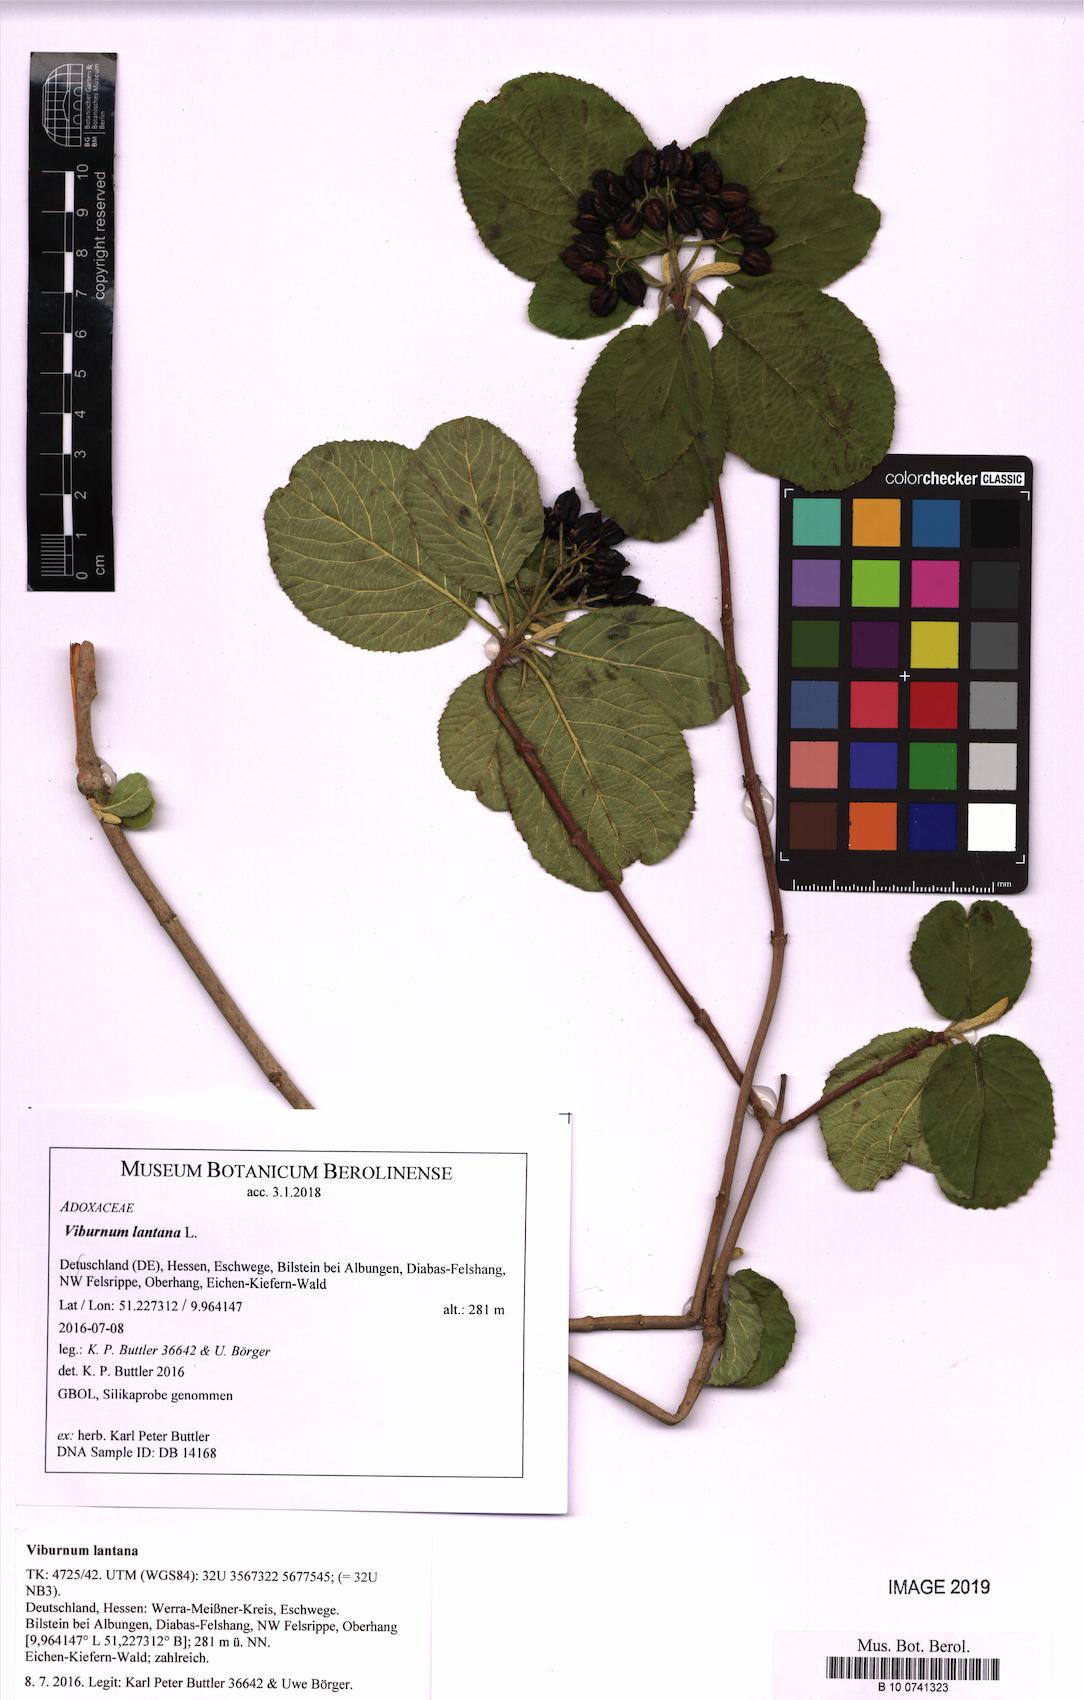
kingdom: Plantae
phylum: Tracheophyta
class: Magnoliopsida
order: Dipsacales
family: Viburnaceae
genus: Viburnum
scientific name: Viburnum lantana
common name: Wayfaring tree
